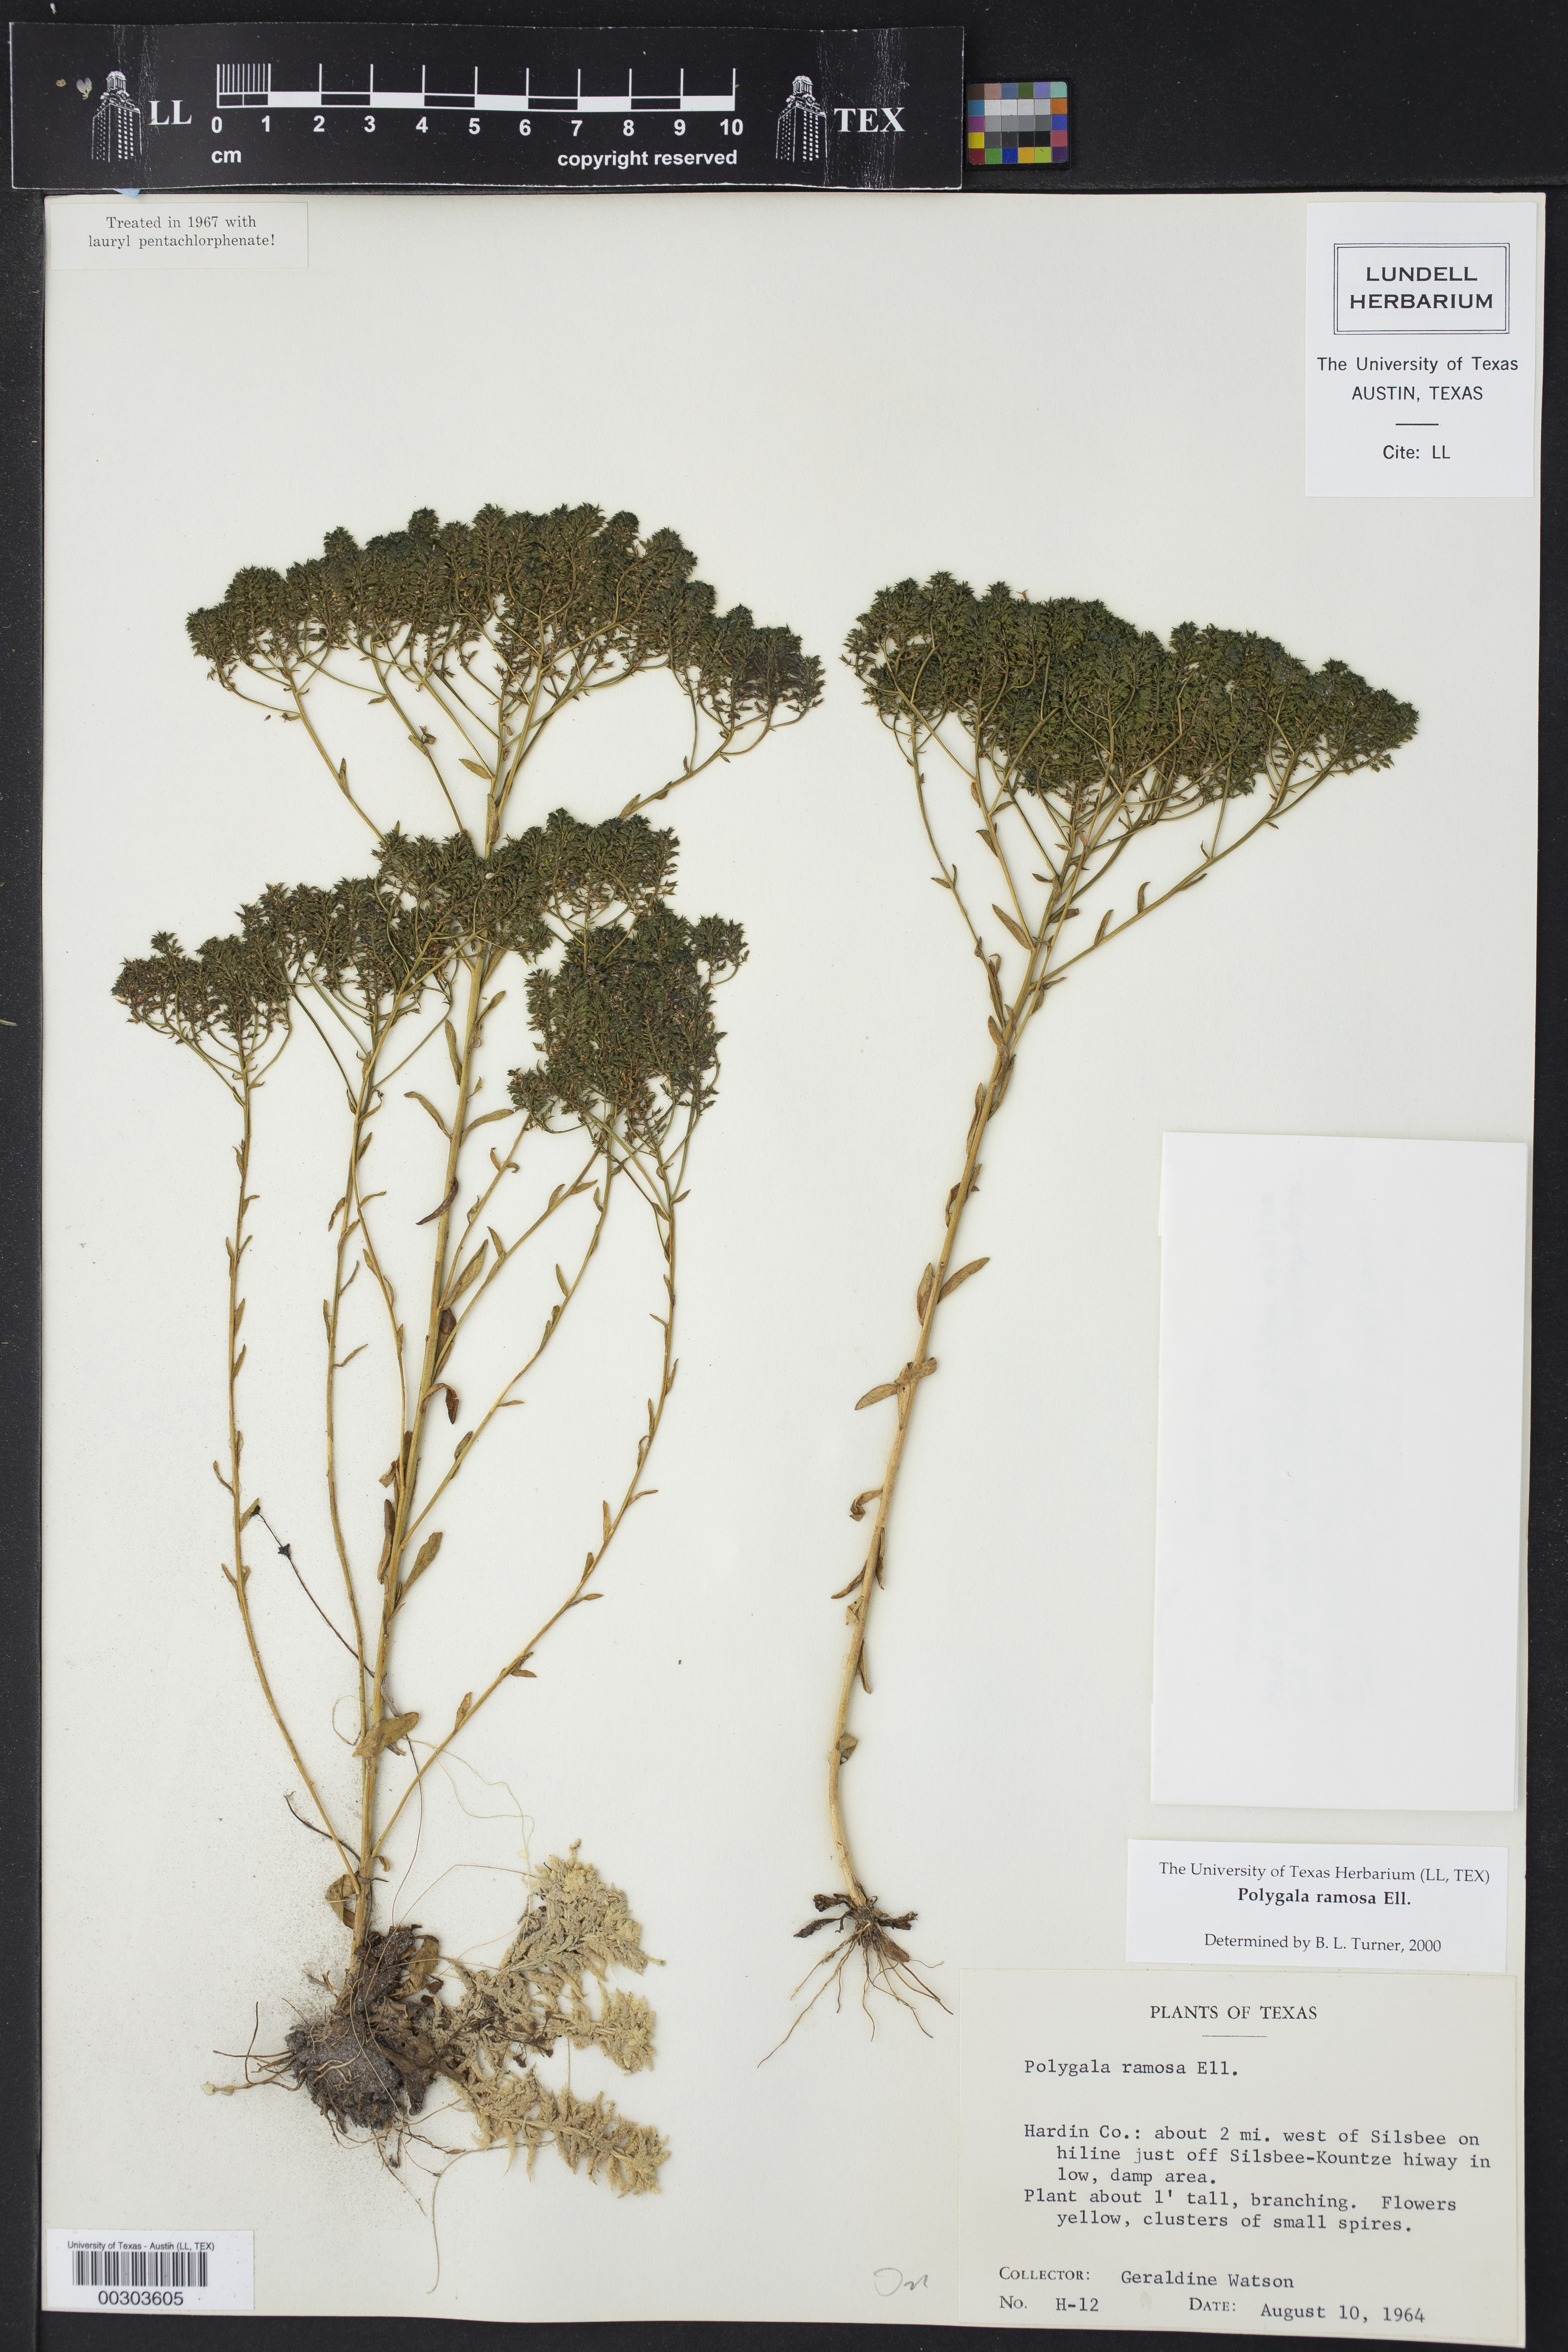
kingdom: Plantae
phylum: Tracheophyta
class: Magnoliopsida
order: Fabales
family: Polygalaceae
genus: Polygala
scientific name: Polygala ramosa
